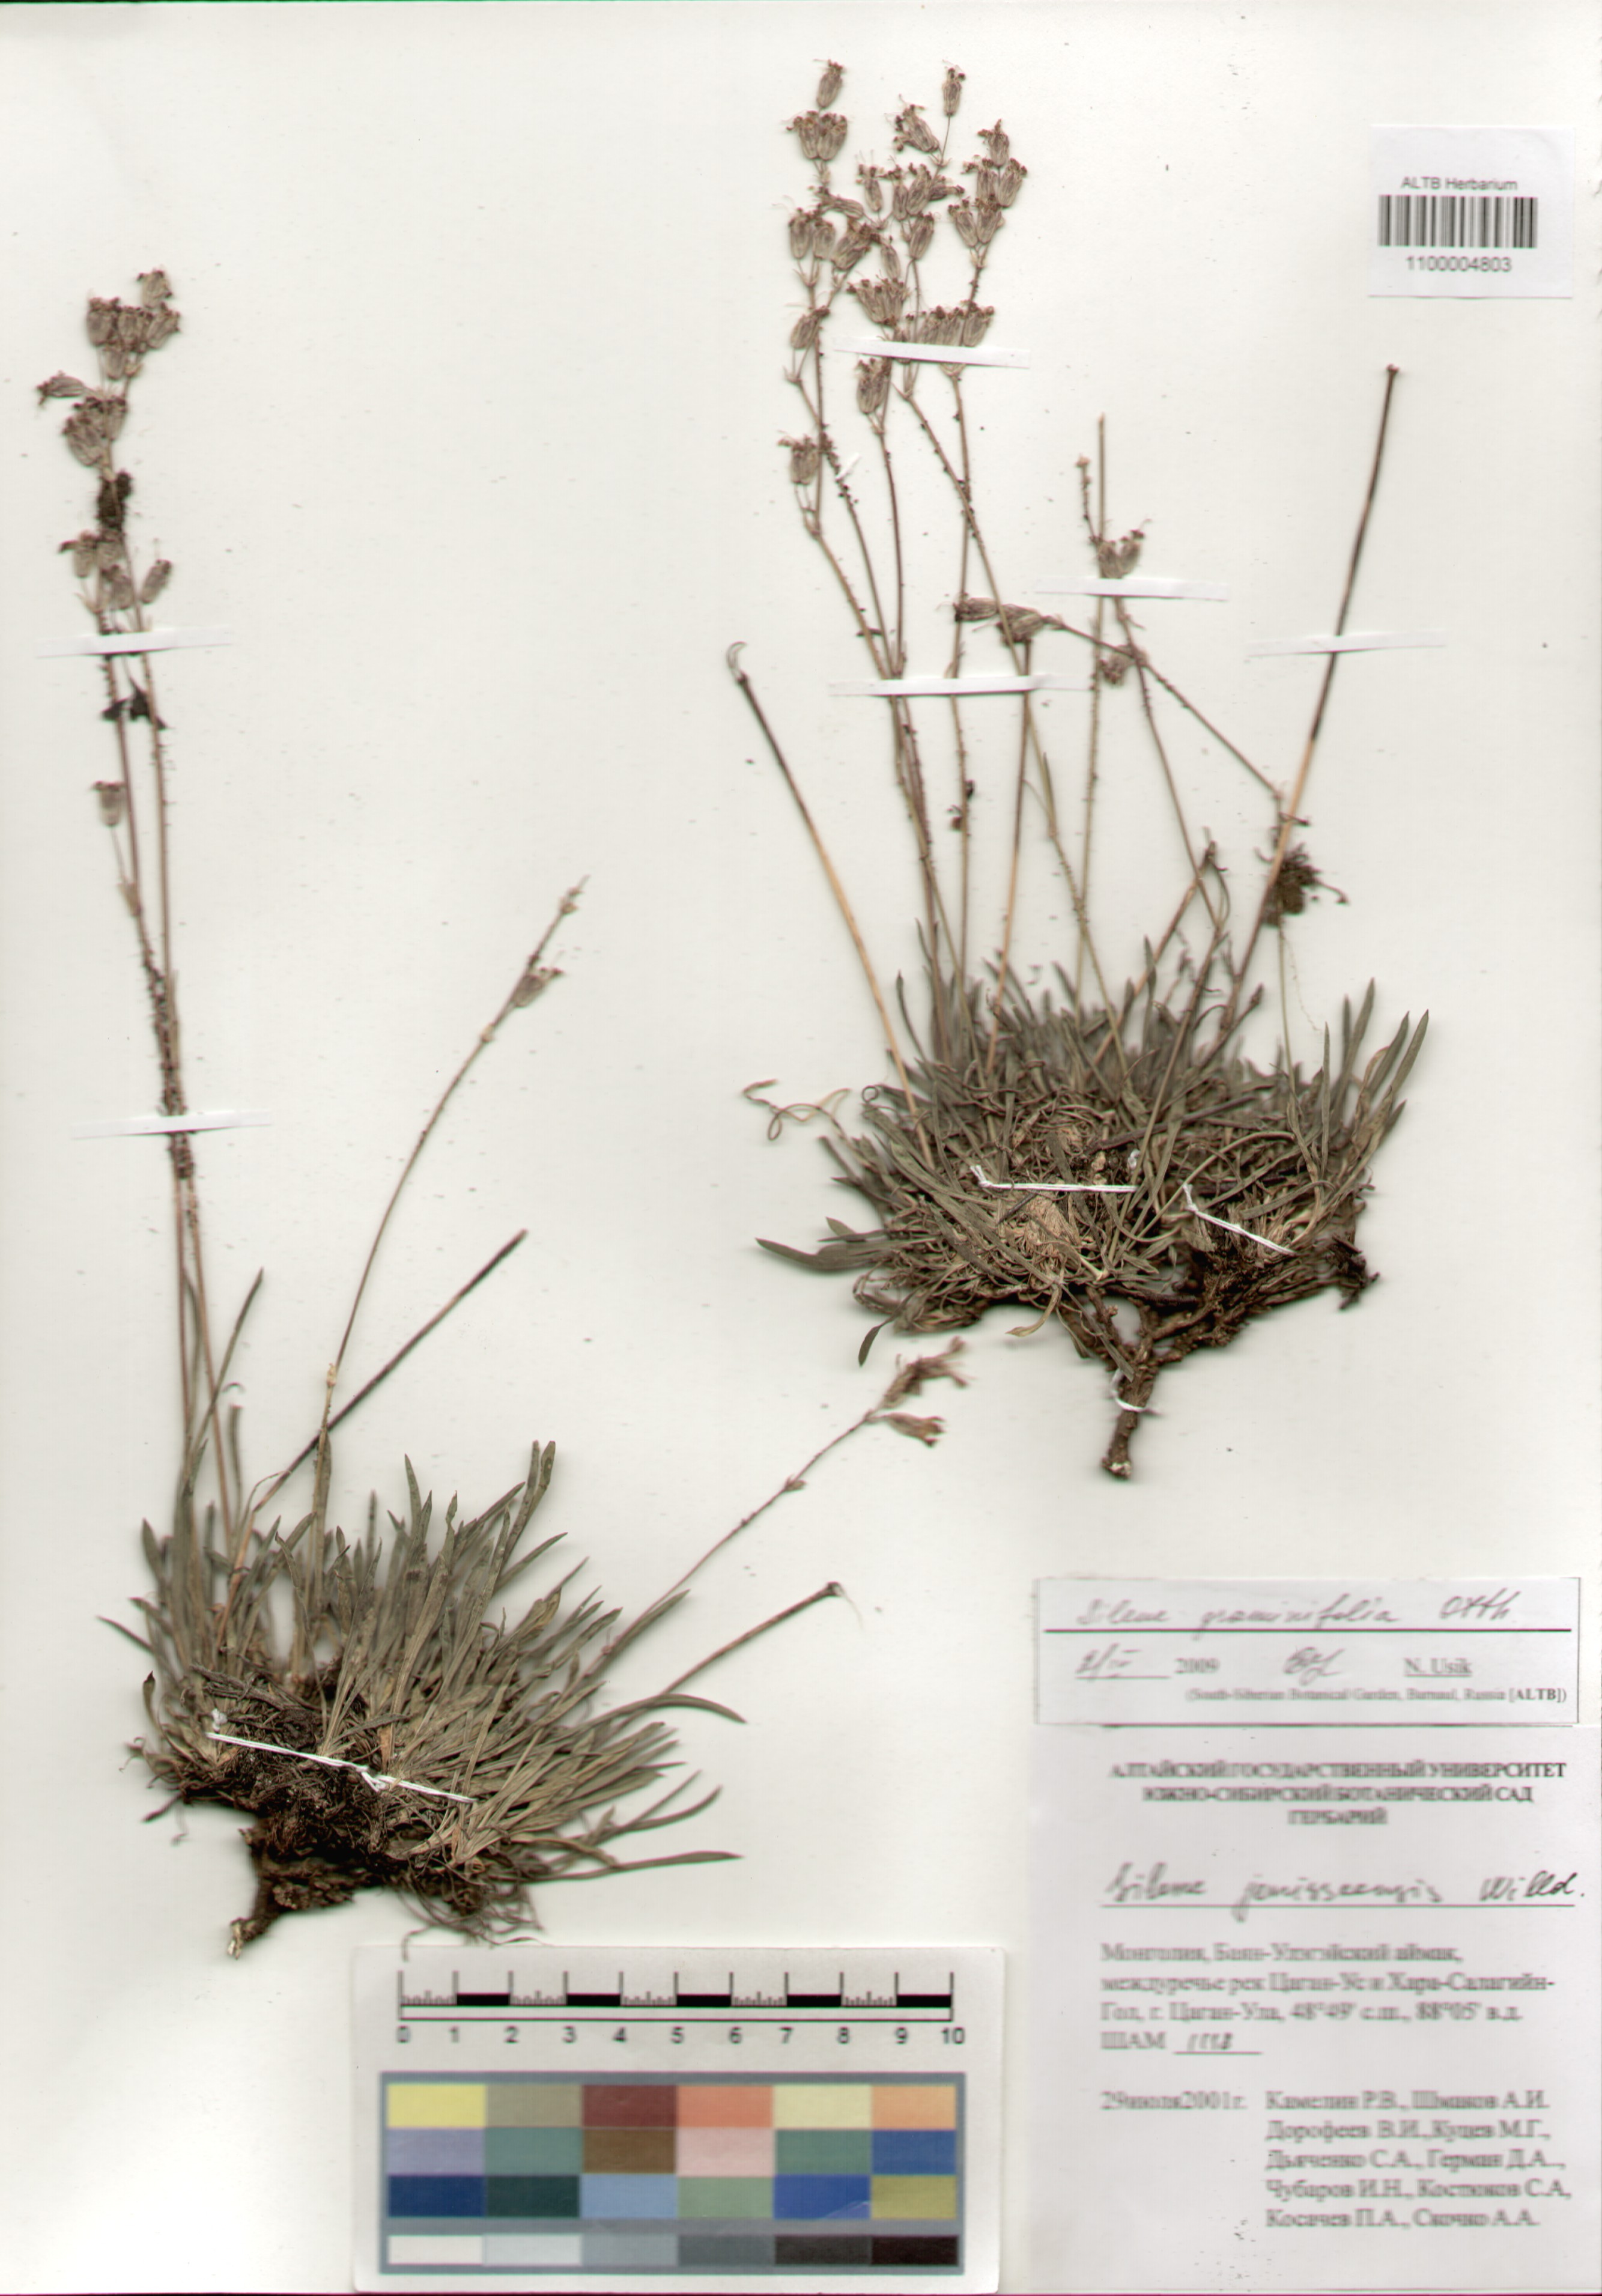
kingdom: Plantae
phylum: Tracheophyta
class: Magnoliopsida
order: Caryophyllales
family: Caryophyllaceae
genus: Silene
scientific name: Silene graminifolia
